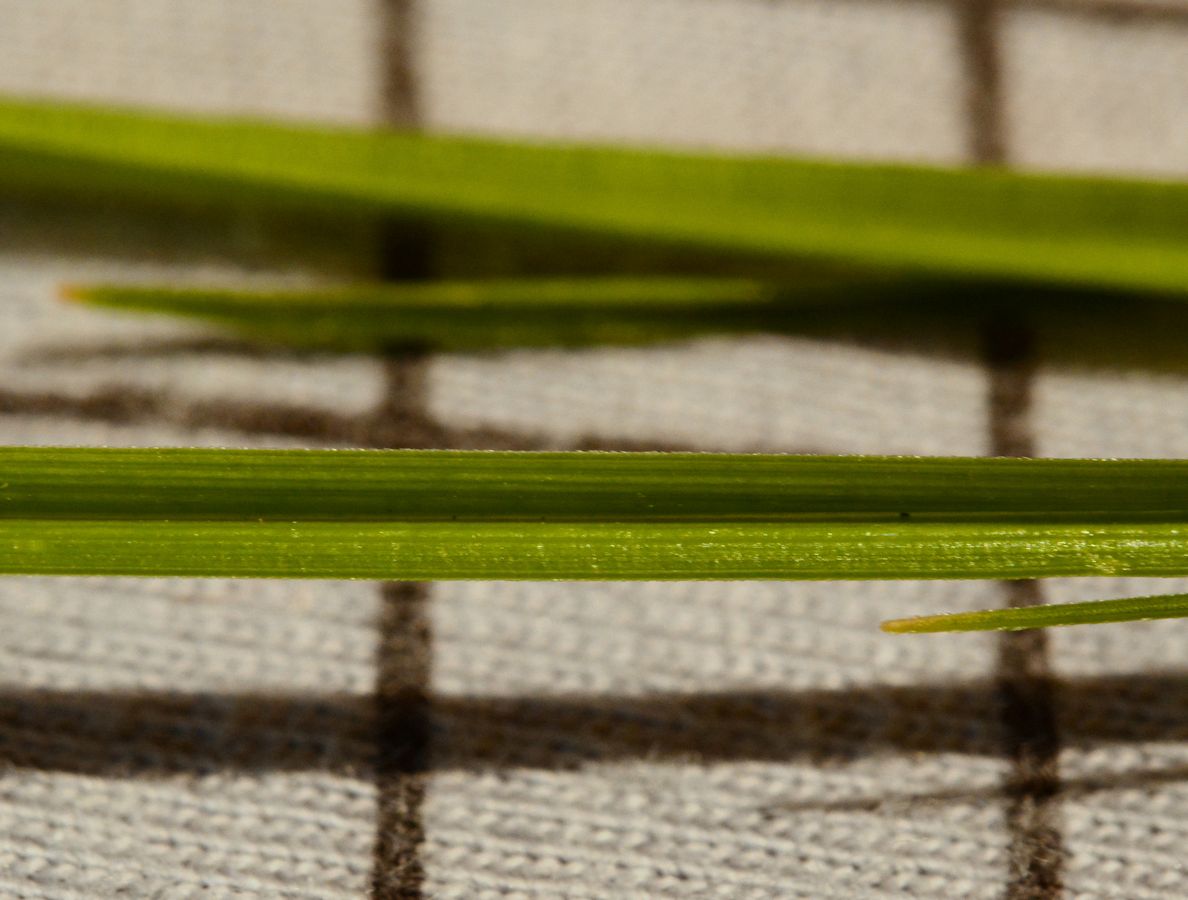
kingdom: Plantae
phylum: Tracheophyta
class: Liliopsida
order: Poales
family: Cyperaceae
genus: Carex
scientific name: Carex lepidocarpa
